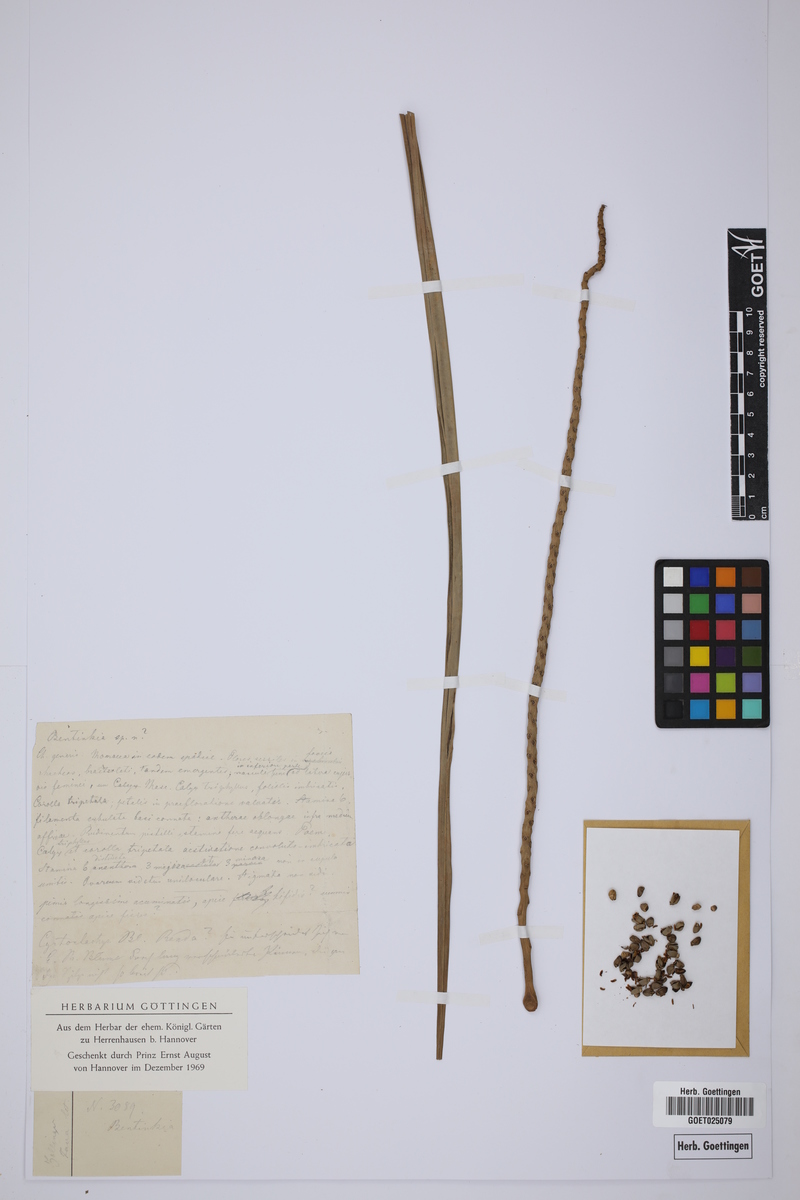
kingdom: Plantae
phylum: Tracheophyta
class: Liliopsida
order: Arecales
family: Arecaceae
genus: Bentinckia
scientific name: Bentinckia
